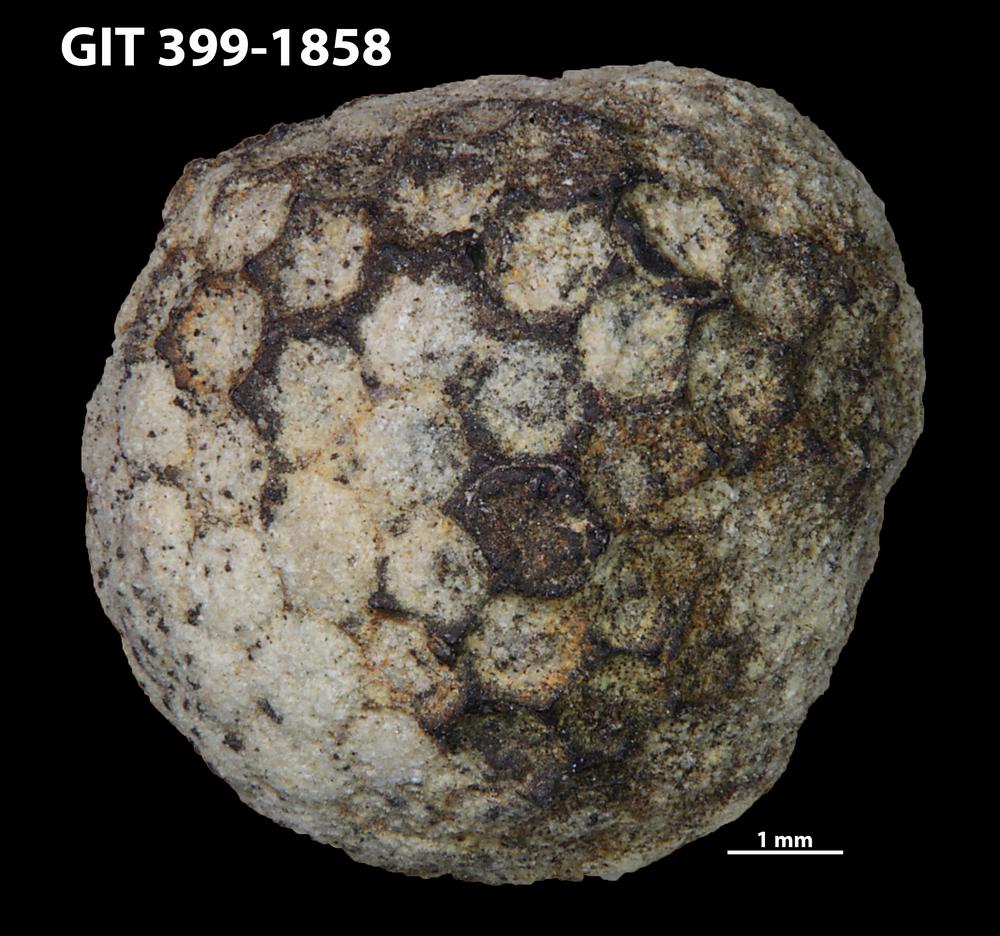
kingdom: Plantae
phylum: Chlorophyta
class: Ulvophyceae
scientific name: Ulvophyceae
